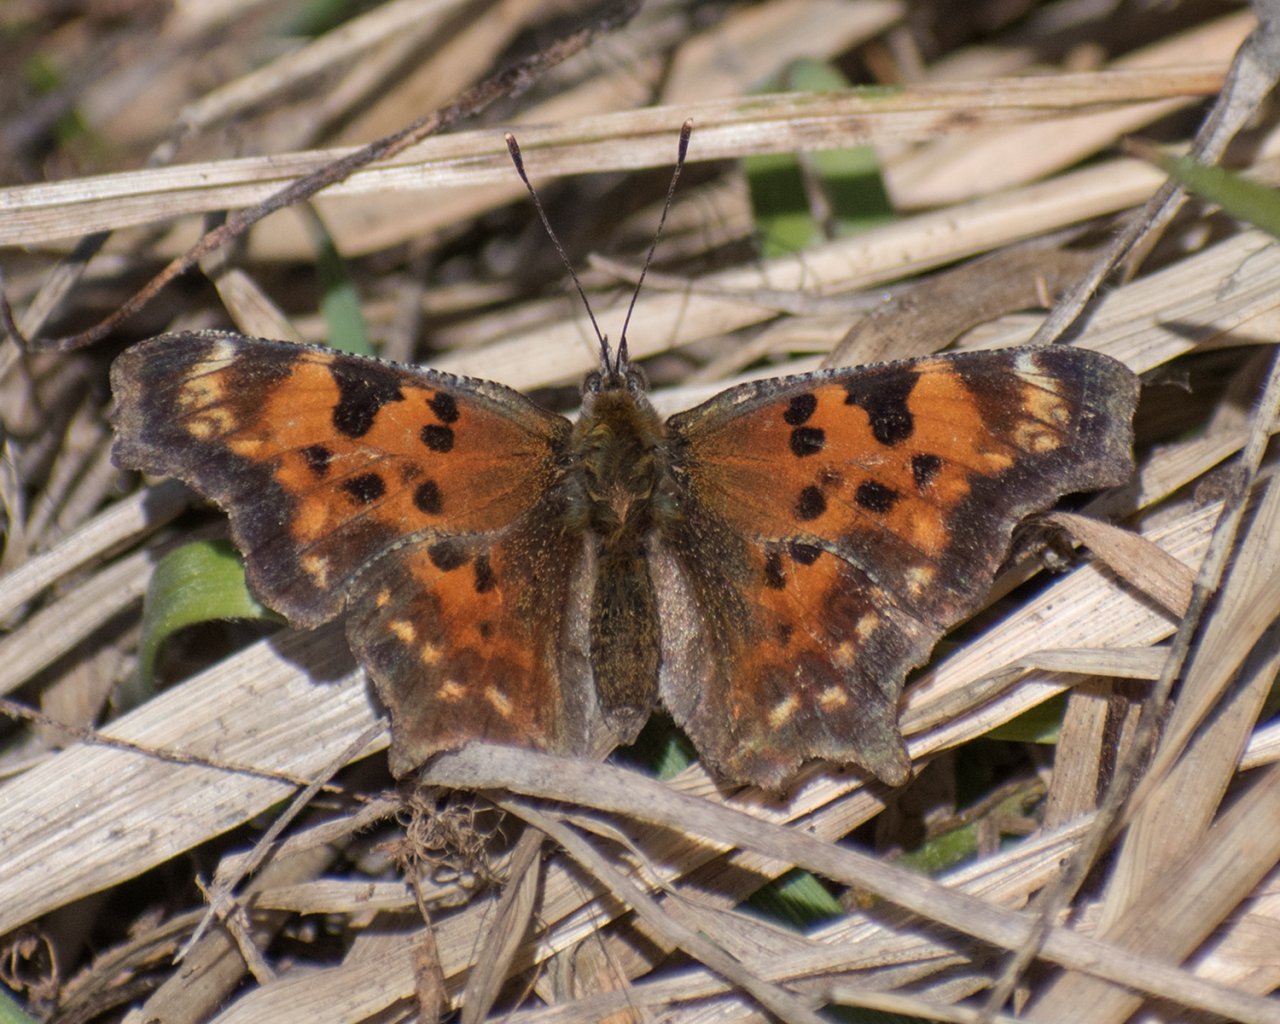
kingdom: Animalia
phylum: Arthropoda
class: Insecta
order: Lepidoptera
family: Nymphalidae
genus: Polygonia
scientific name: Polygonia faunus
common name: Green Comma
